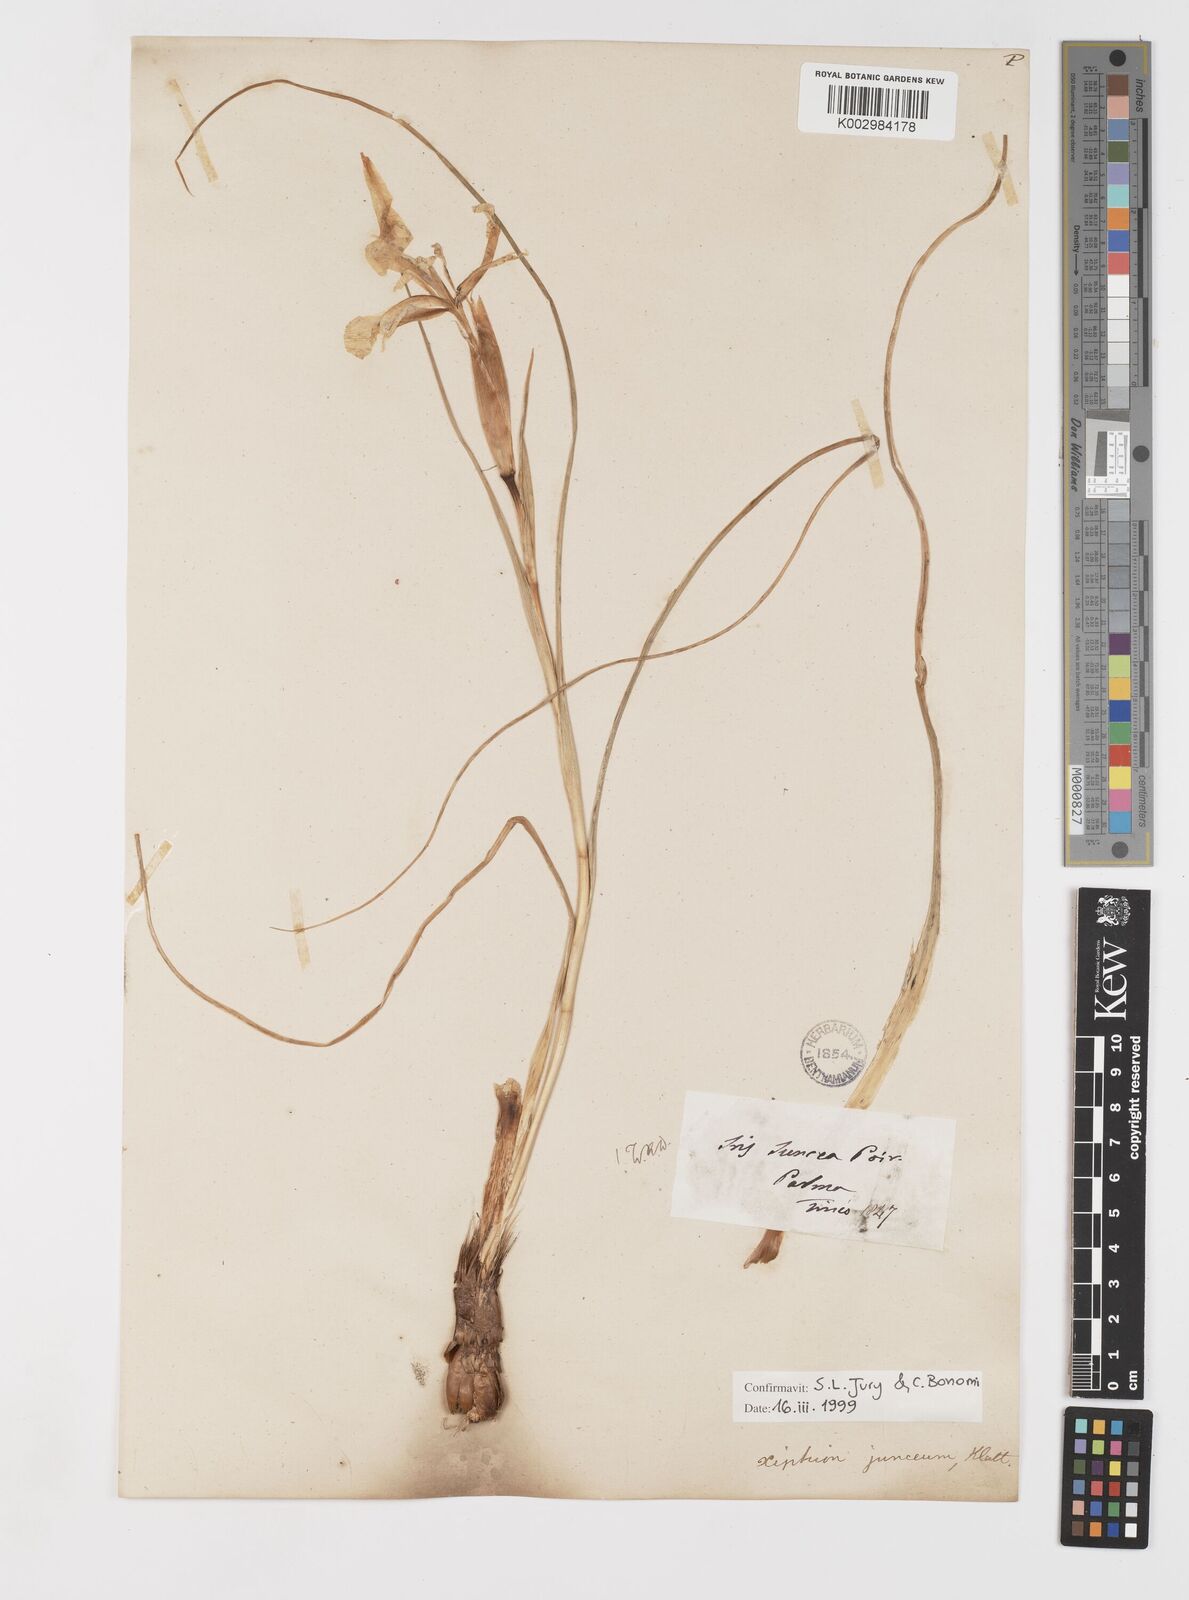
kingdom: Plantae
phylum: Tracheophyta
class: Liliopsida
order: Asparagales
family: Iridaceae
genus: Iris
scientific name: Iris juncea
